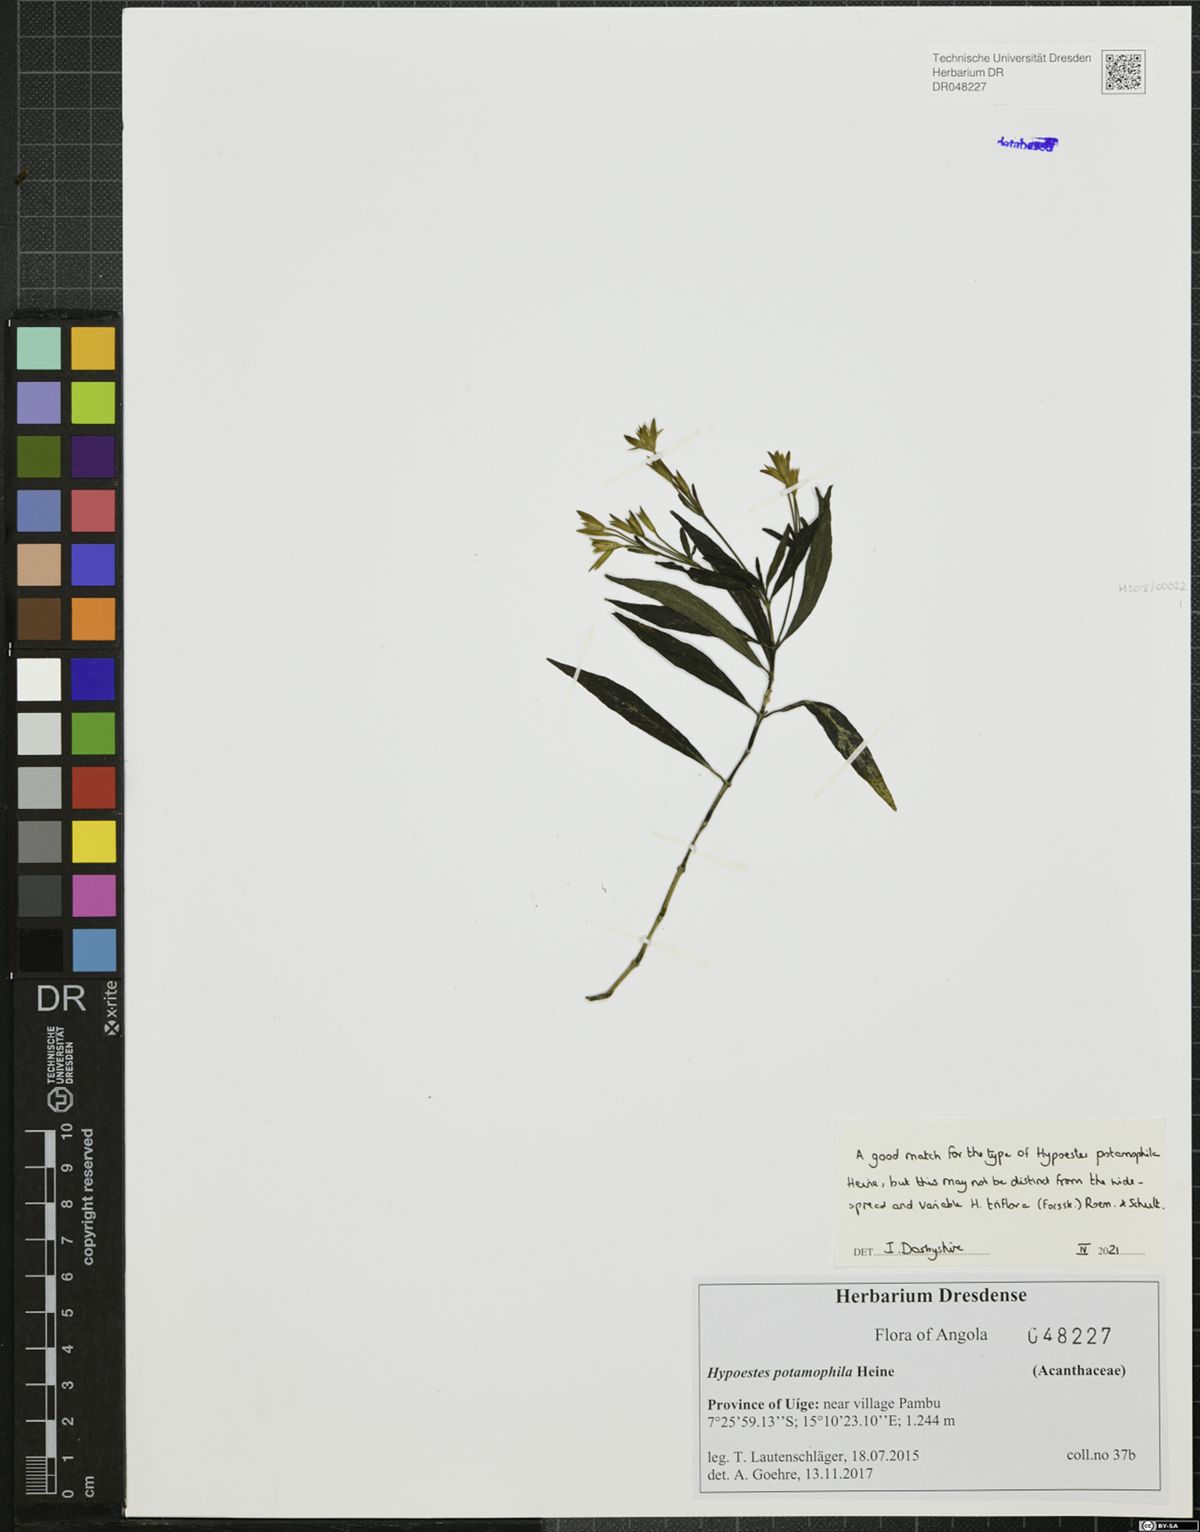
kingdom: Plantae
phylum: Tracheophyta
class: Magnoliopsida
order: Lamiales
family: Acanthaceae
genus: Hypoestes
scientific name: Hypoestes potamophila
